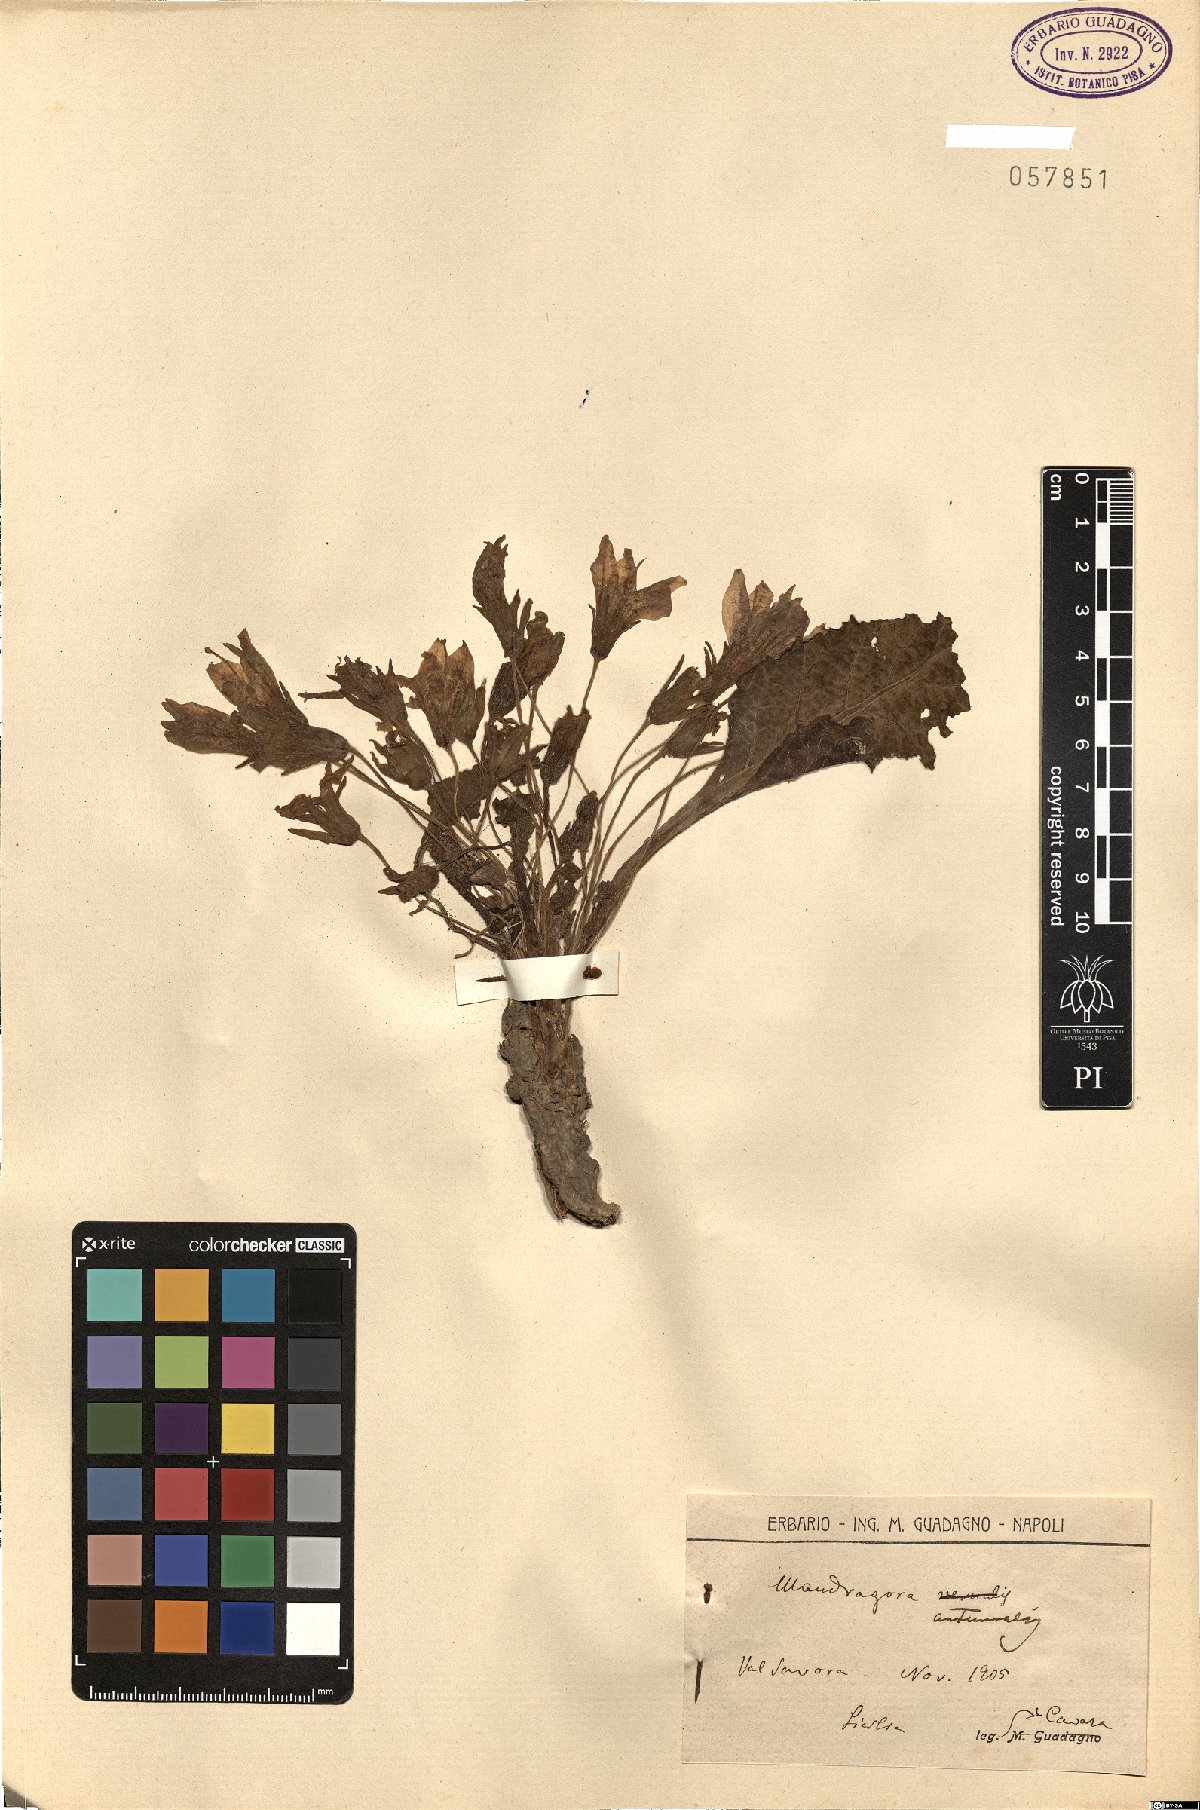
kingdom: Plantae
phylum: Tracheophyta
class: Magnoliopsida
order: Solanales
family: Solanaceae
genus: Mandragora
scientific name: Mandragora officinarum
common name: Mandrake
